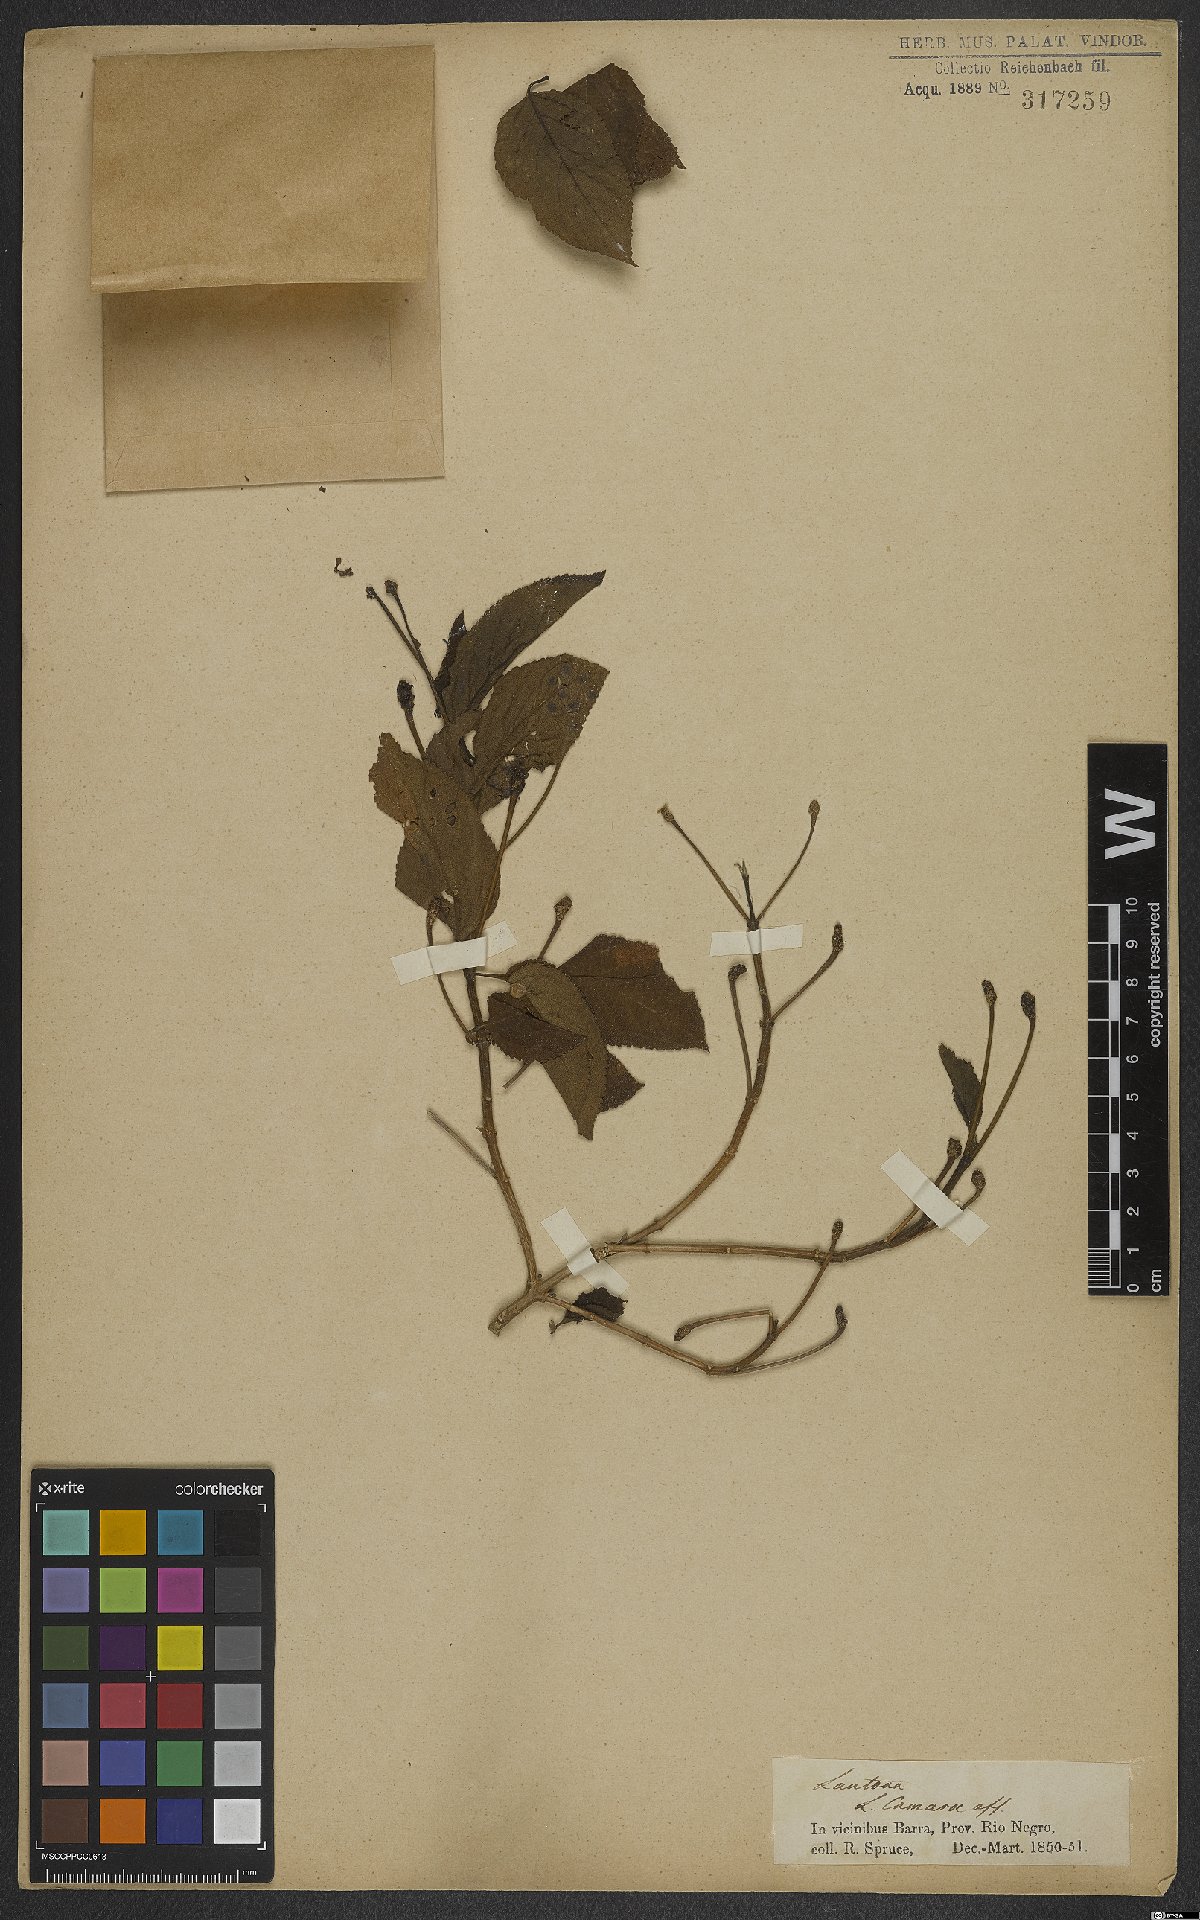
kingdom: Plantae
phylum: Tracheophyta
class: Magnoliopsida
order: Lamiales
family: Verbenaceae
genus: Lantana
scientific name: Lantana camara
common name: Lantana
